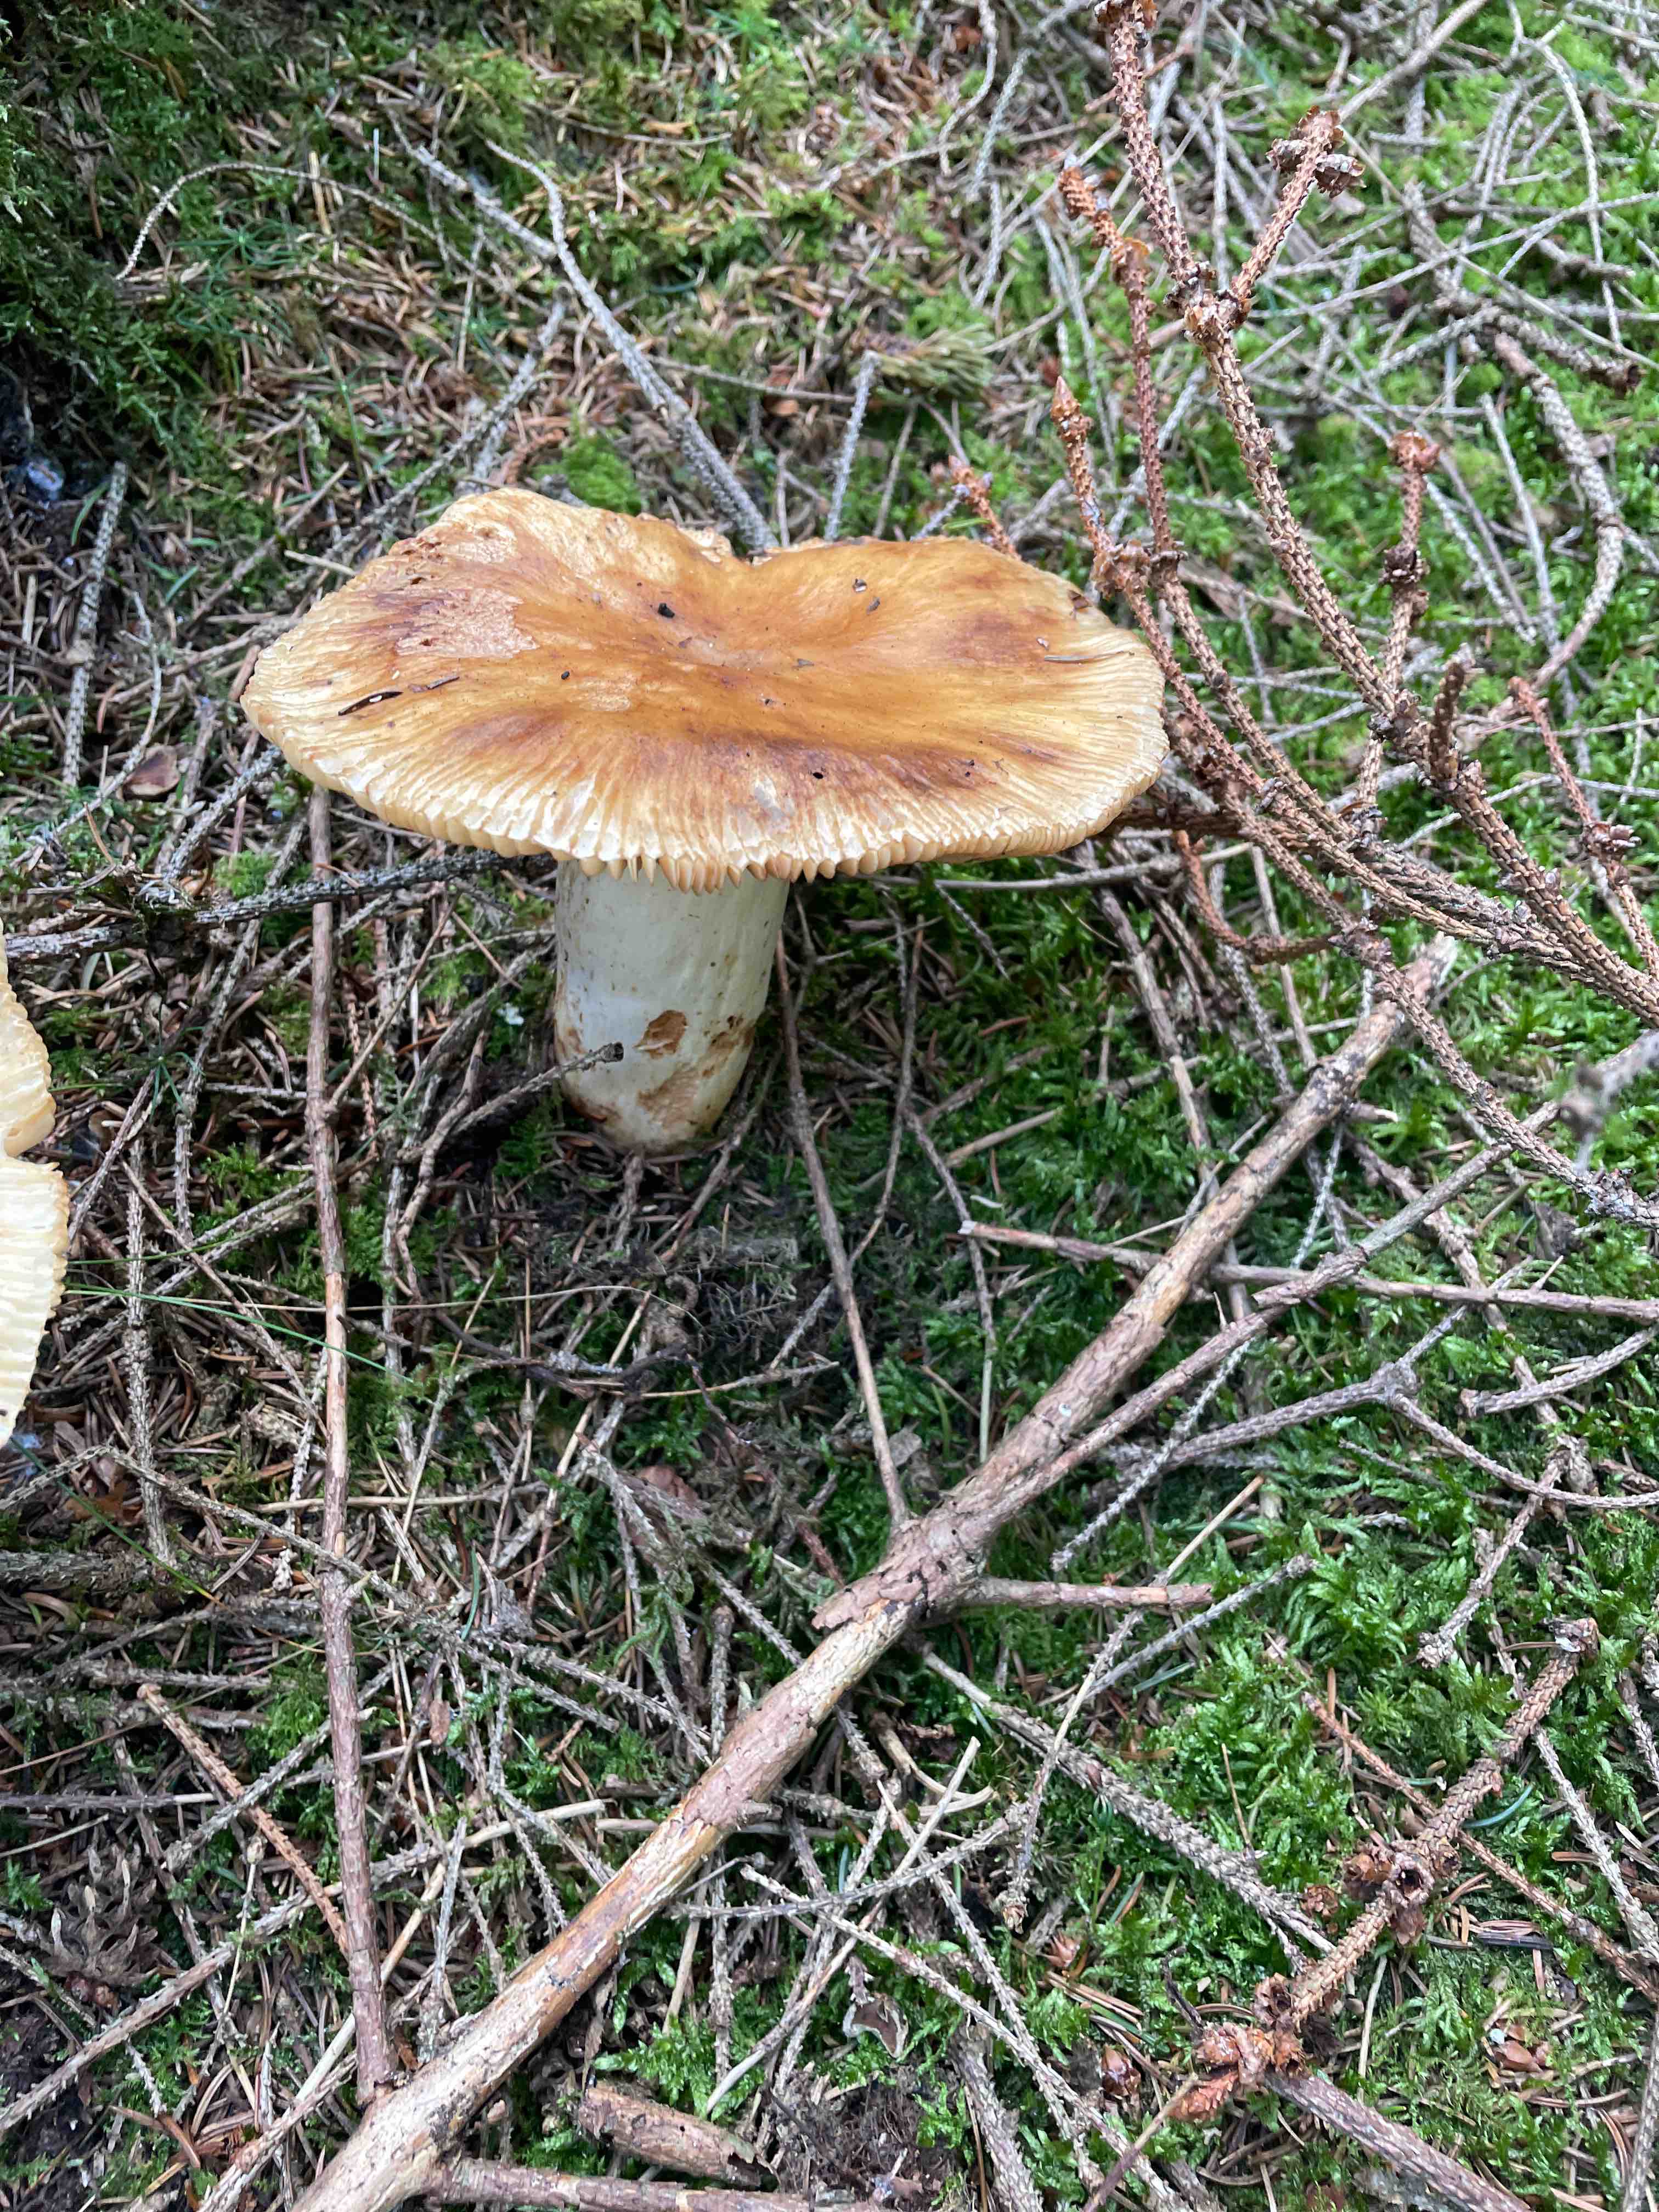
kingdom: Fungi
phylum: Basidiomycota
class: Agaricomycetes
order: Russulales
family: Russulaceae
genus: Russula
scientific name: Russula
